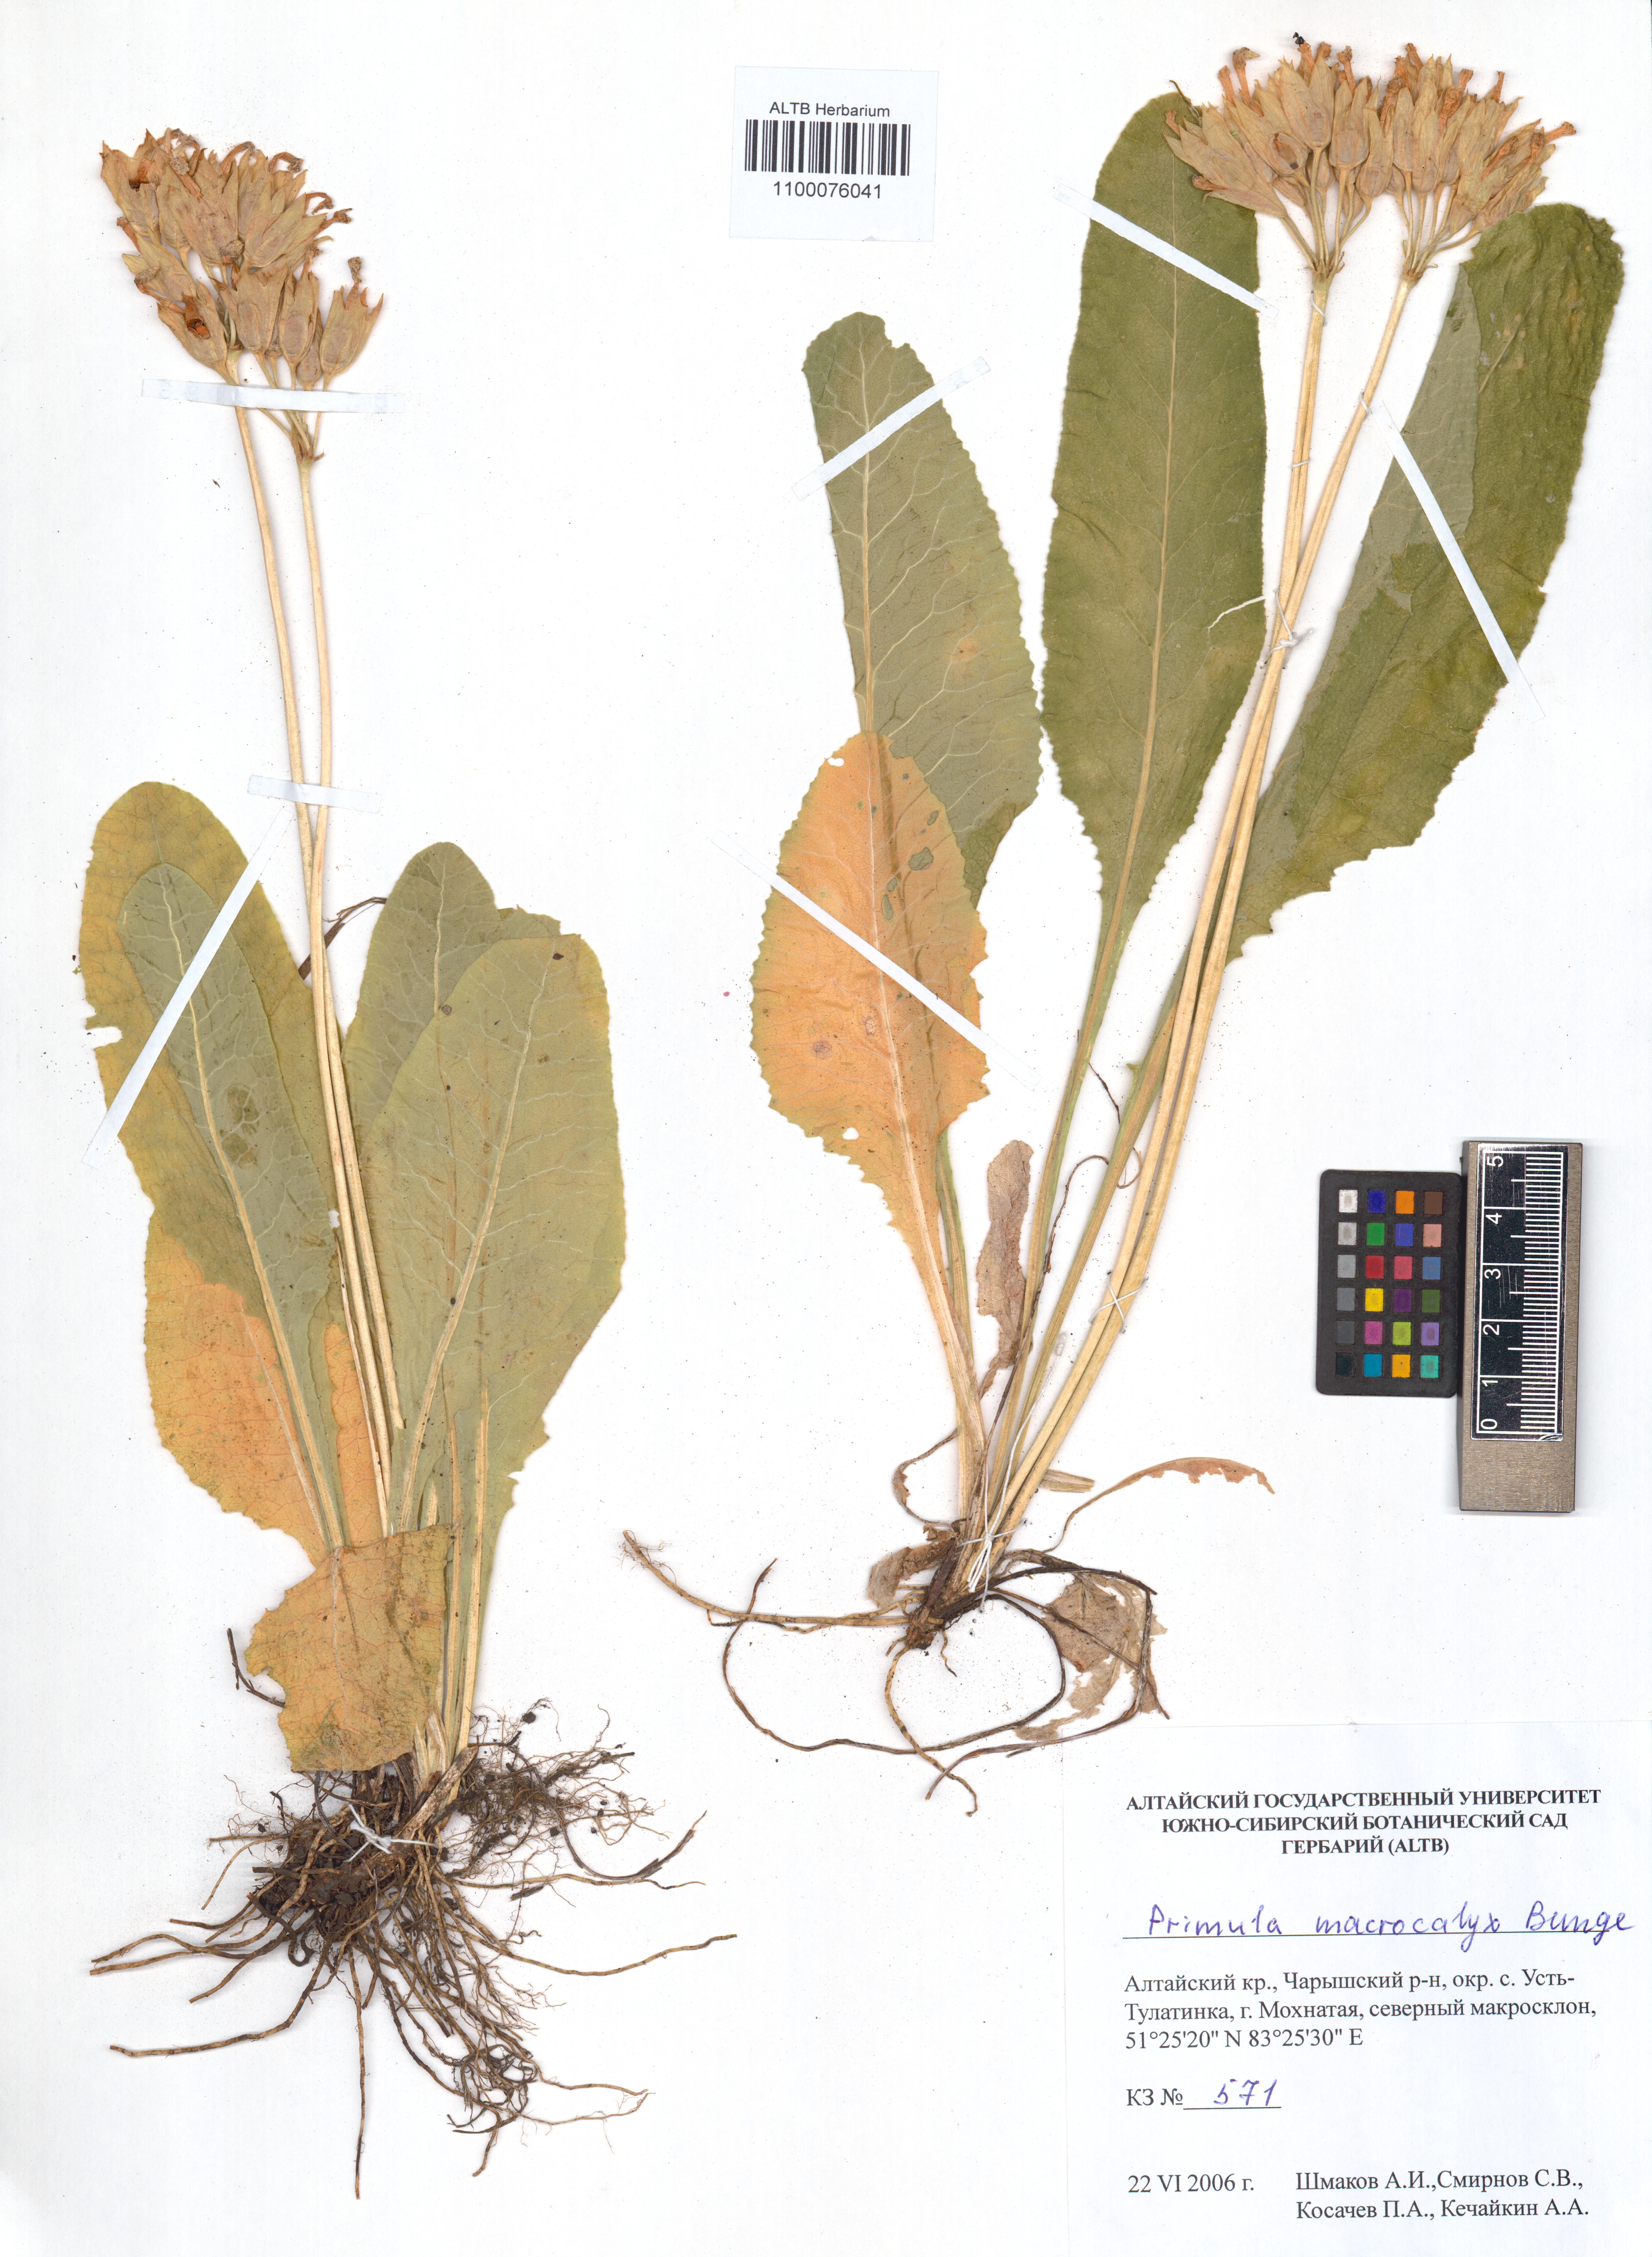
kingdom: Plantae
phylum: Tracheophyta
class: Magnoliopsida
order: Ericales
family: Primulaceae
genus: Primula
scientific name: Primula veris
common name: Cowslip
